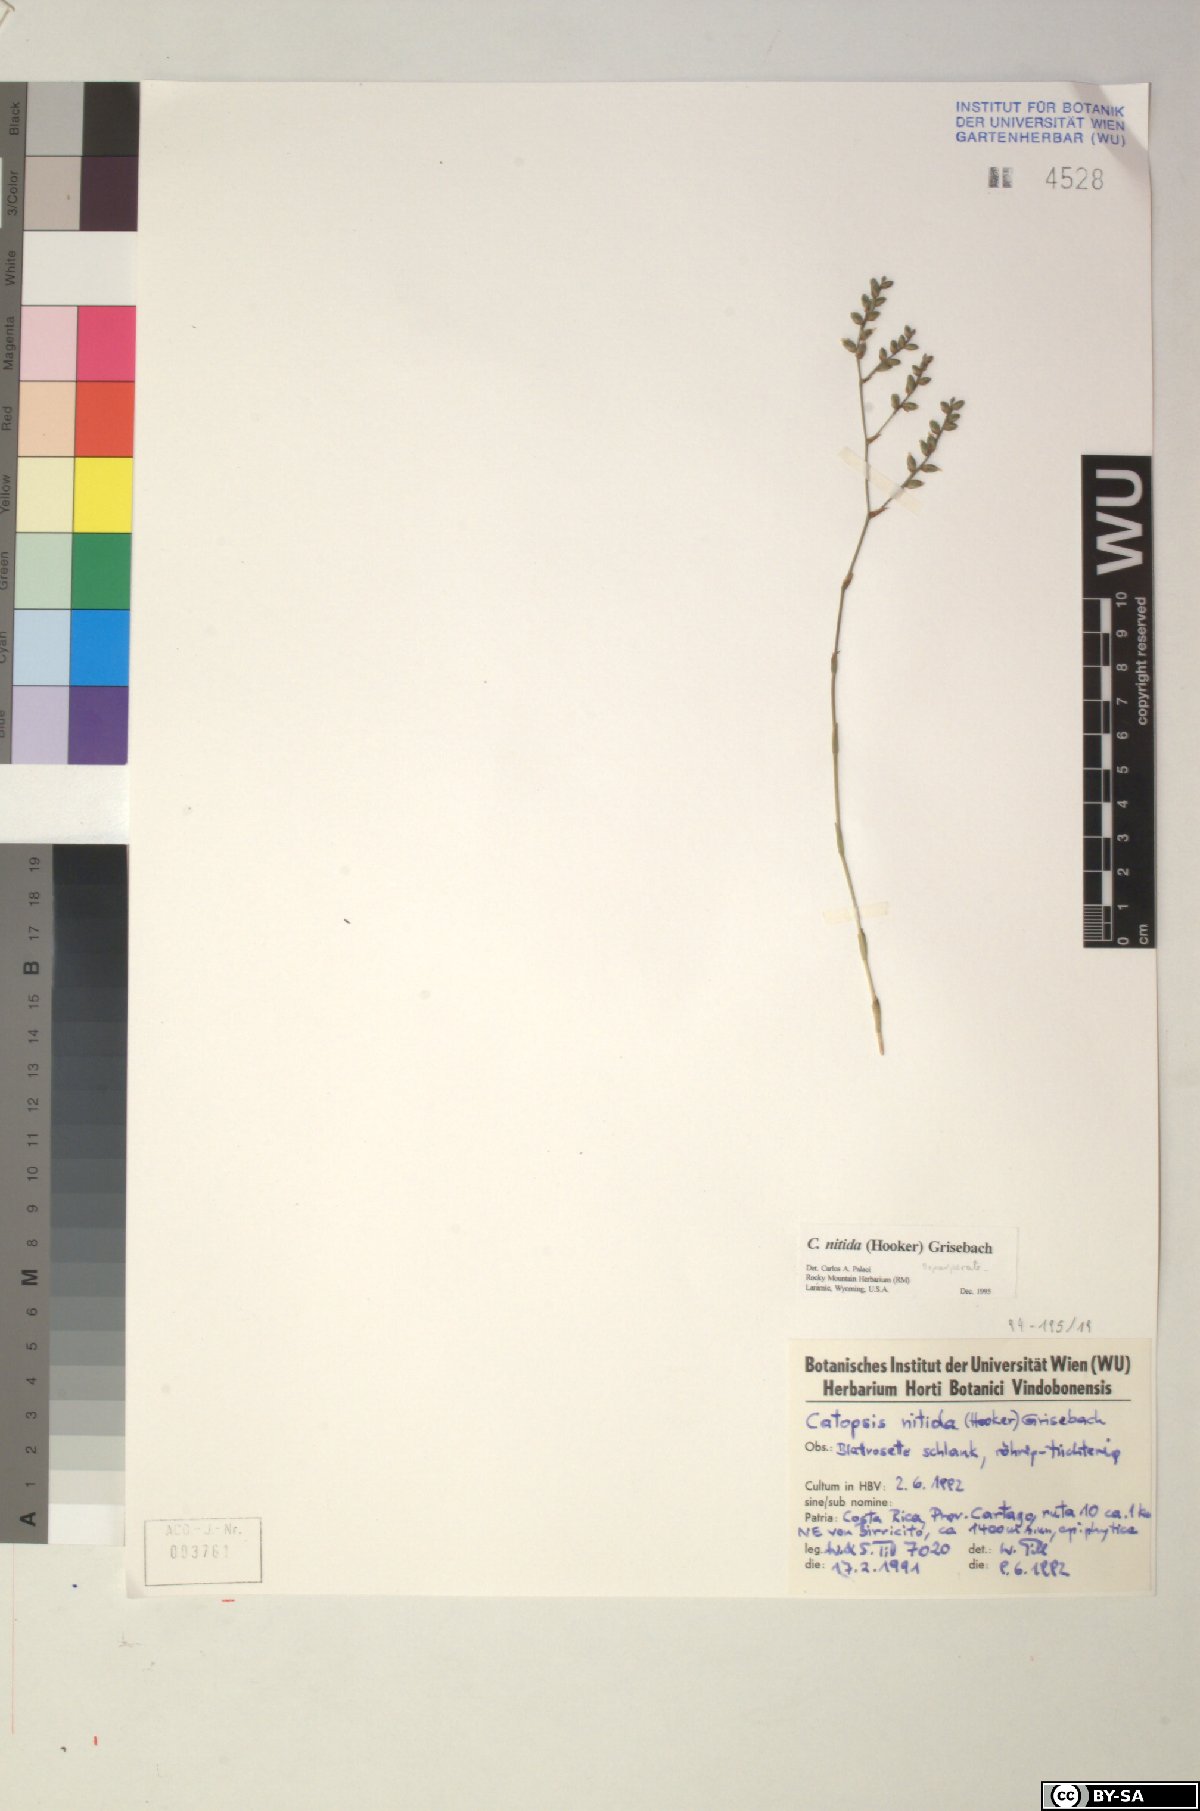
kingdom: Plantae
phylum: Tracheophyta
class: Liliopsida
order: Poales
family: Bromeliaceae
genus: Catopsis
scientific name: Catopsis nitida
